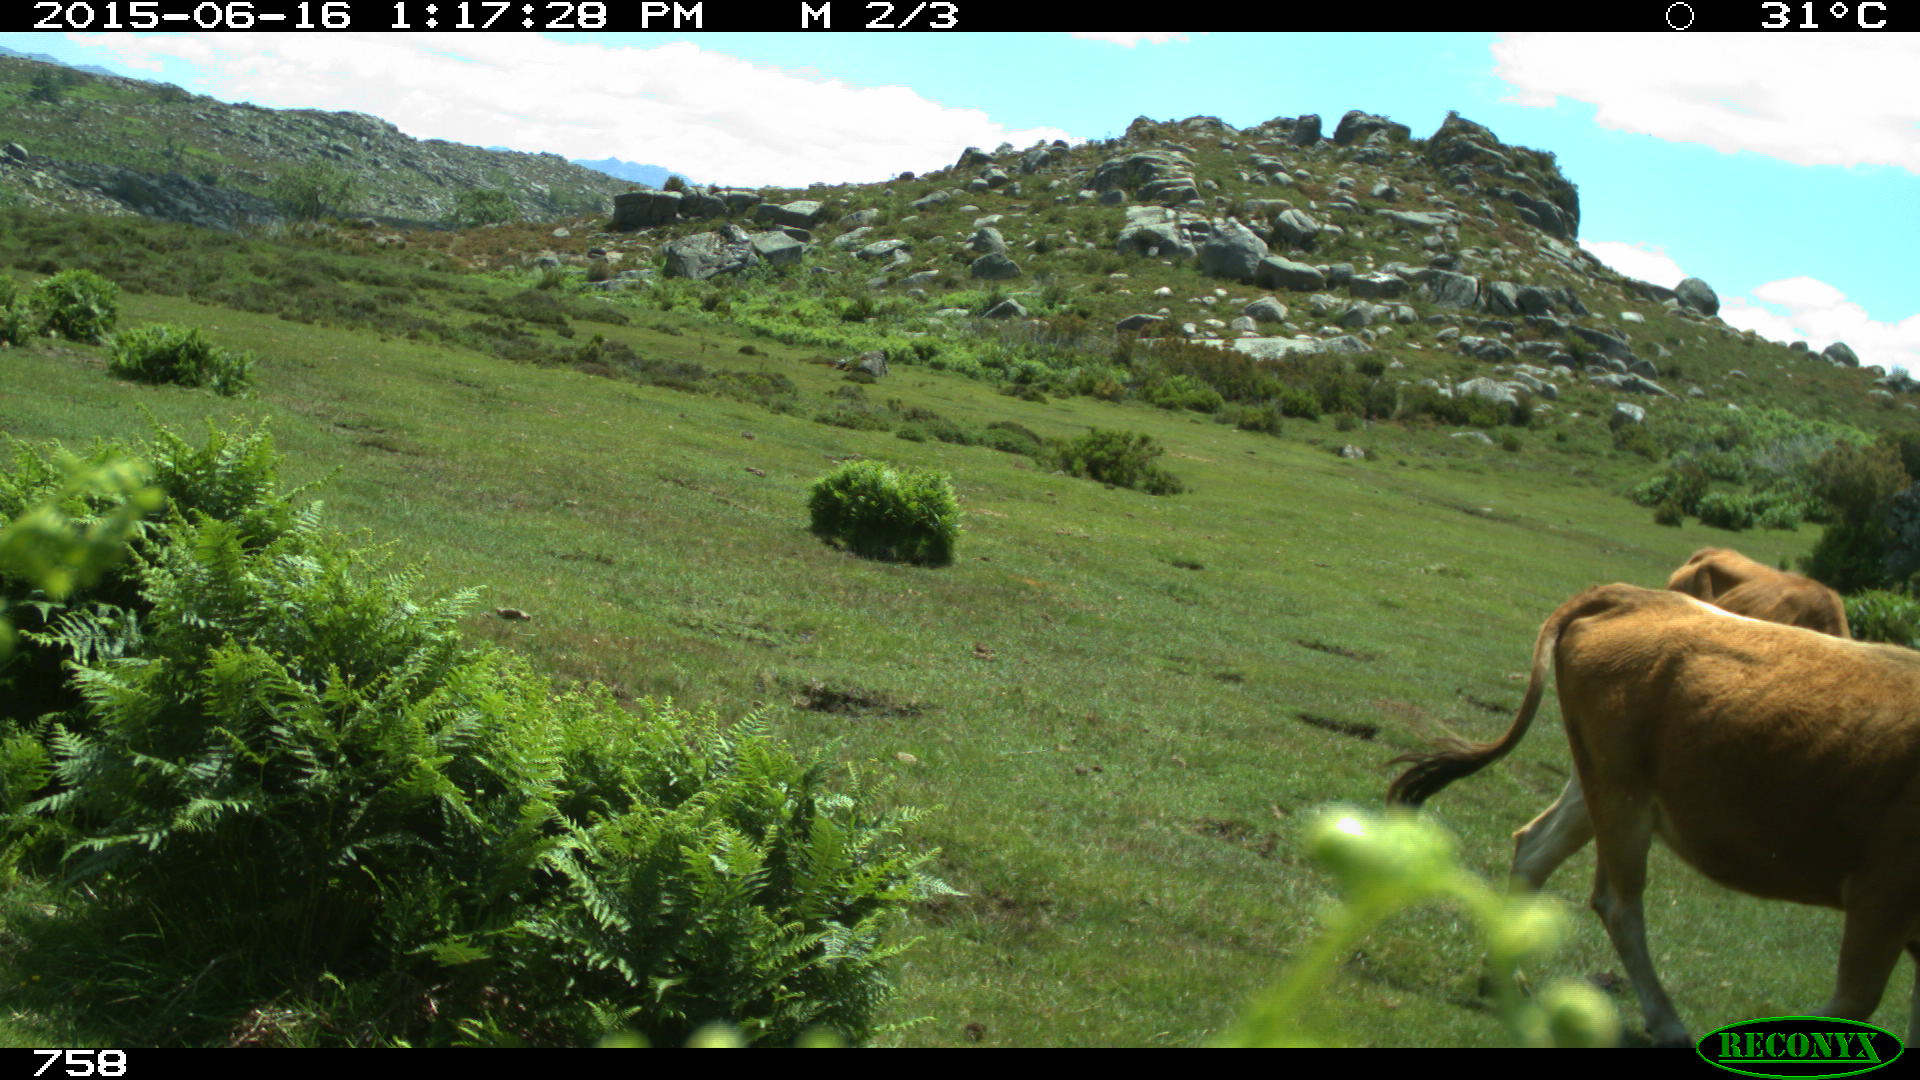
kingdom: Animalia
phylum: Chordata
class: Mammalia
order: Artiodactyla
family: Bovidae
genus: Bos
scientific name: Bos taurus
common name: Domesticated cattle
